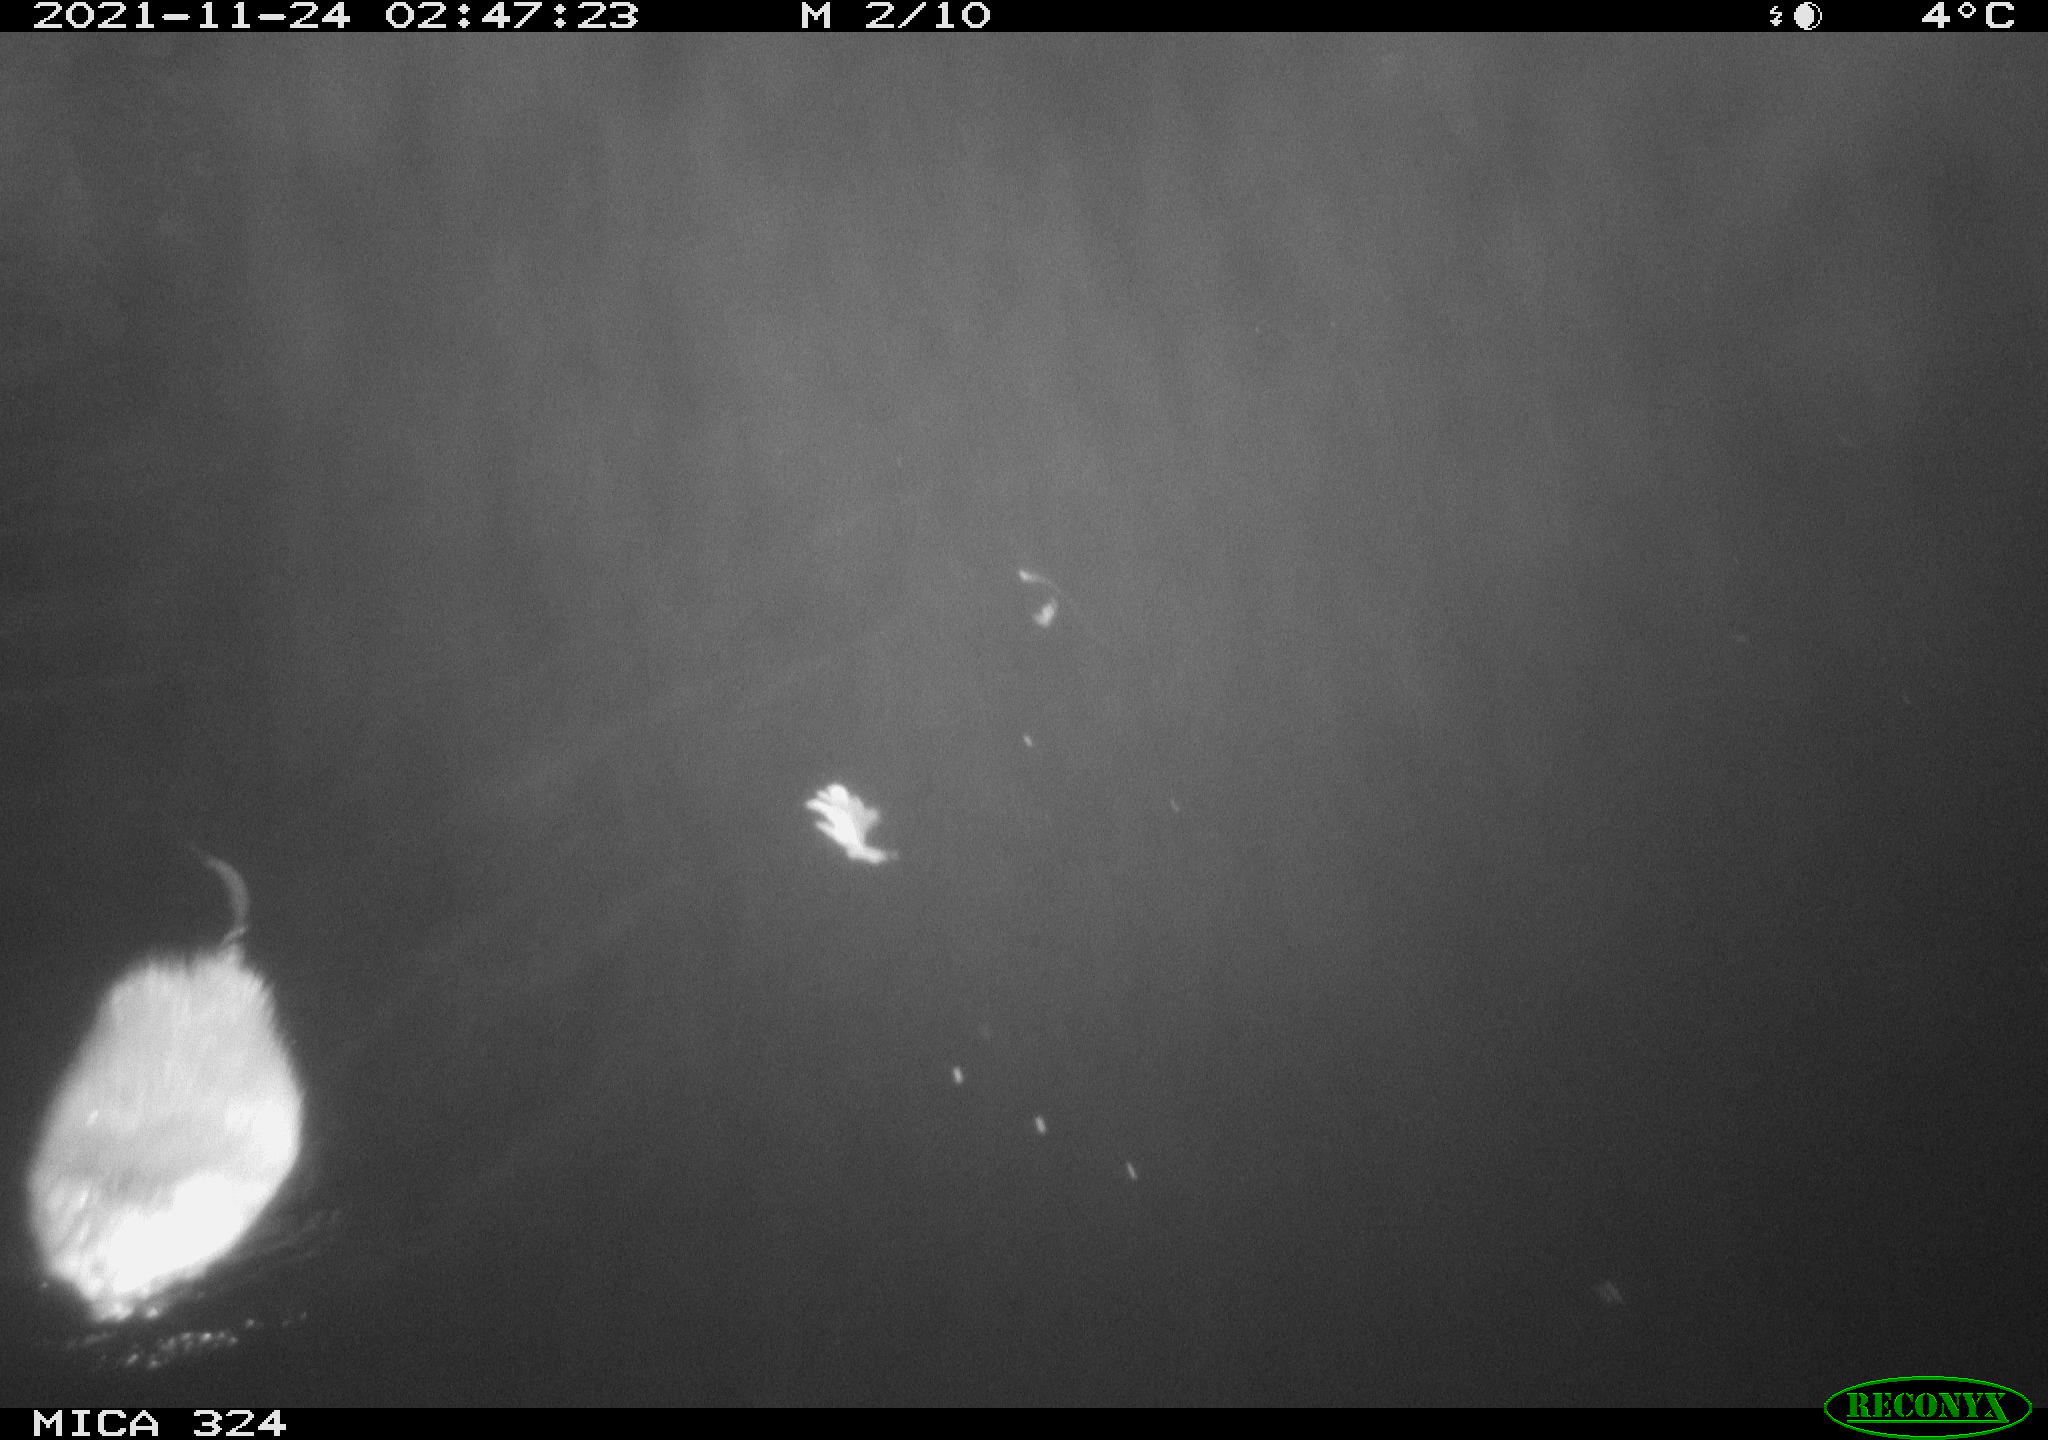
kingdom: Animalia
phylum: Chordata
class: Mammalia
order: Rodentia
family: Cricetidae
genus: Ondatra
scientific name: Ondatra zibethicus
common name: Muskrat
